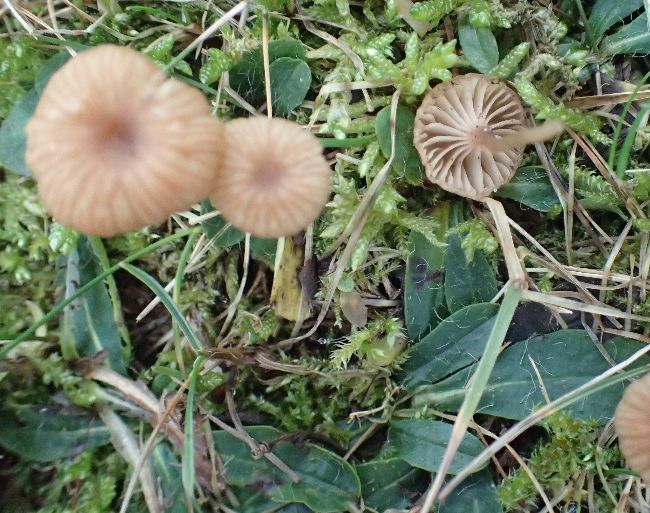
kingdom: Fungi
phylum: Basidiomycota
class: Agaricomycetes
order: Agaricales
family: Tricholomataceae
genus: Omphalina
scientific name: Omphalina pyxidata
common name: rødbrun navlehat
